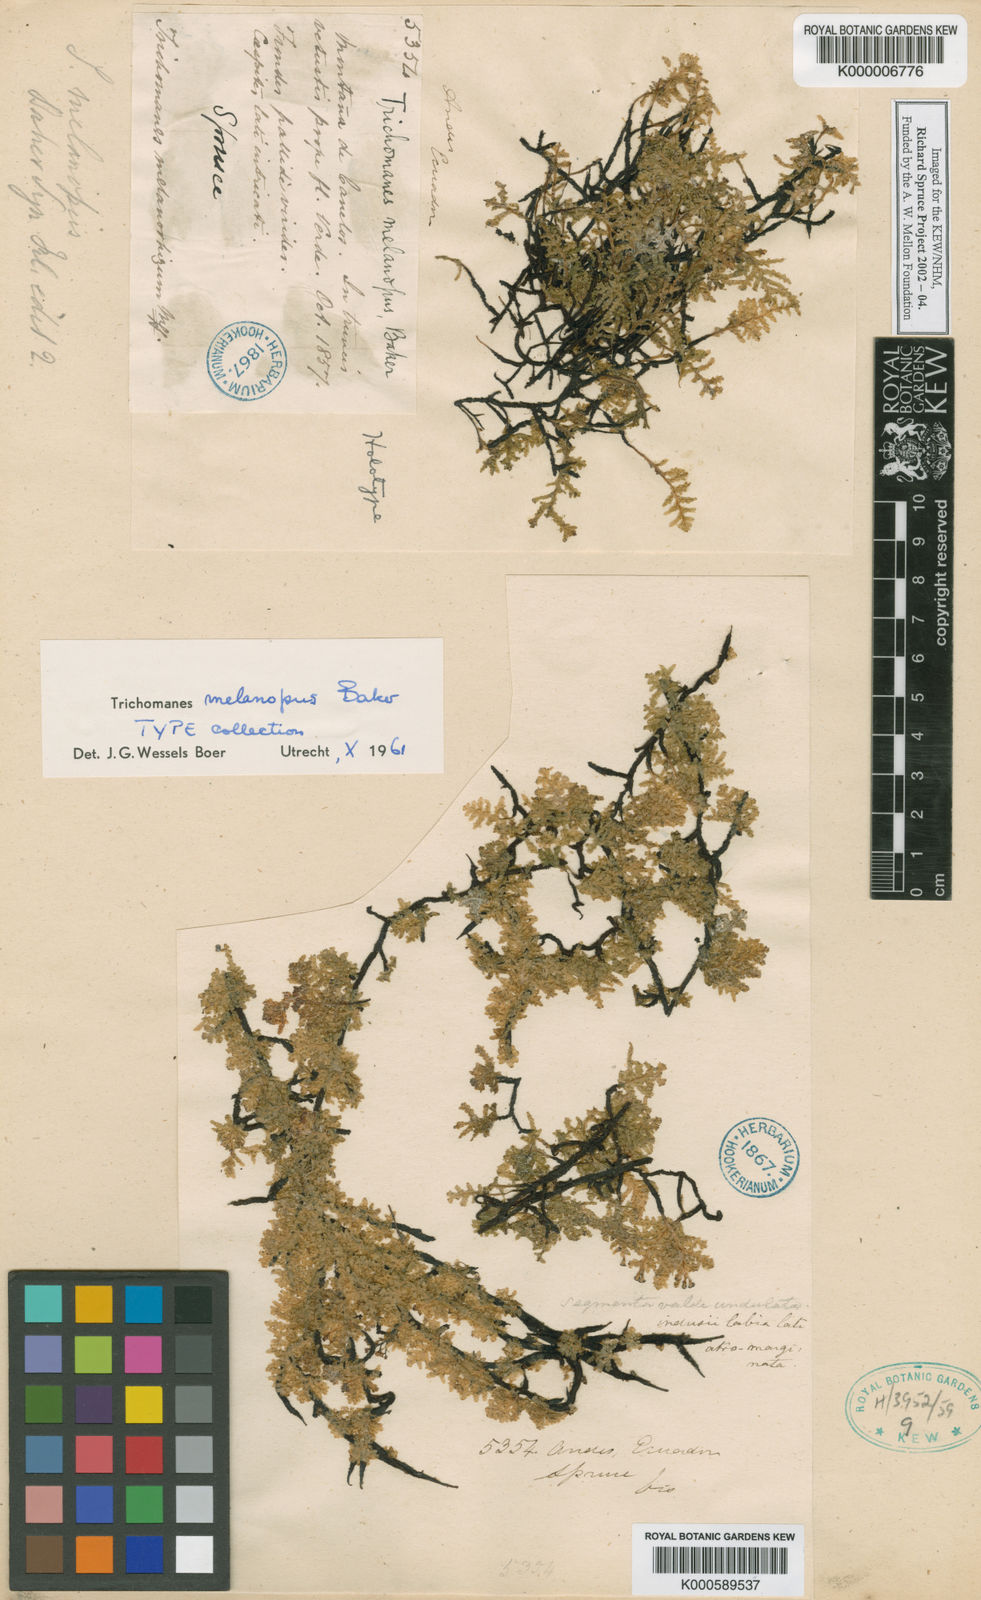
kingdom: Plantae
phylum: Tracheophyta
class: Polypodiopsida
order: Hymenophyllales
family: Hymenophyllaceae
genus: Didymoglossum
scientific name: Didymoglossum melanopus
